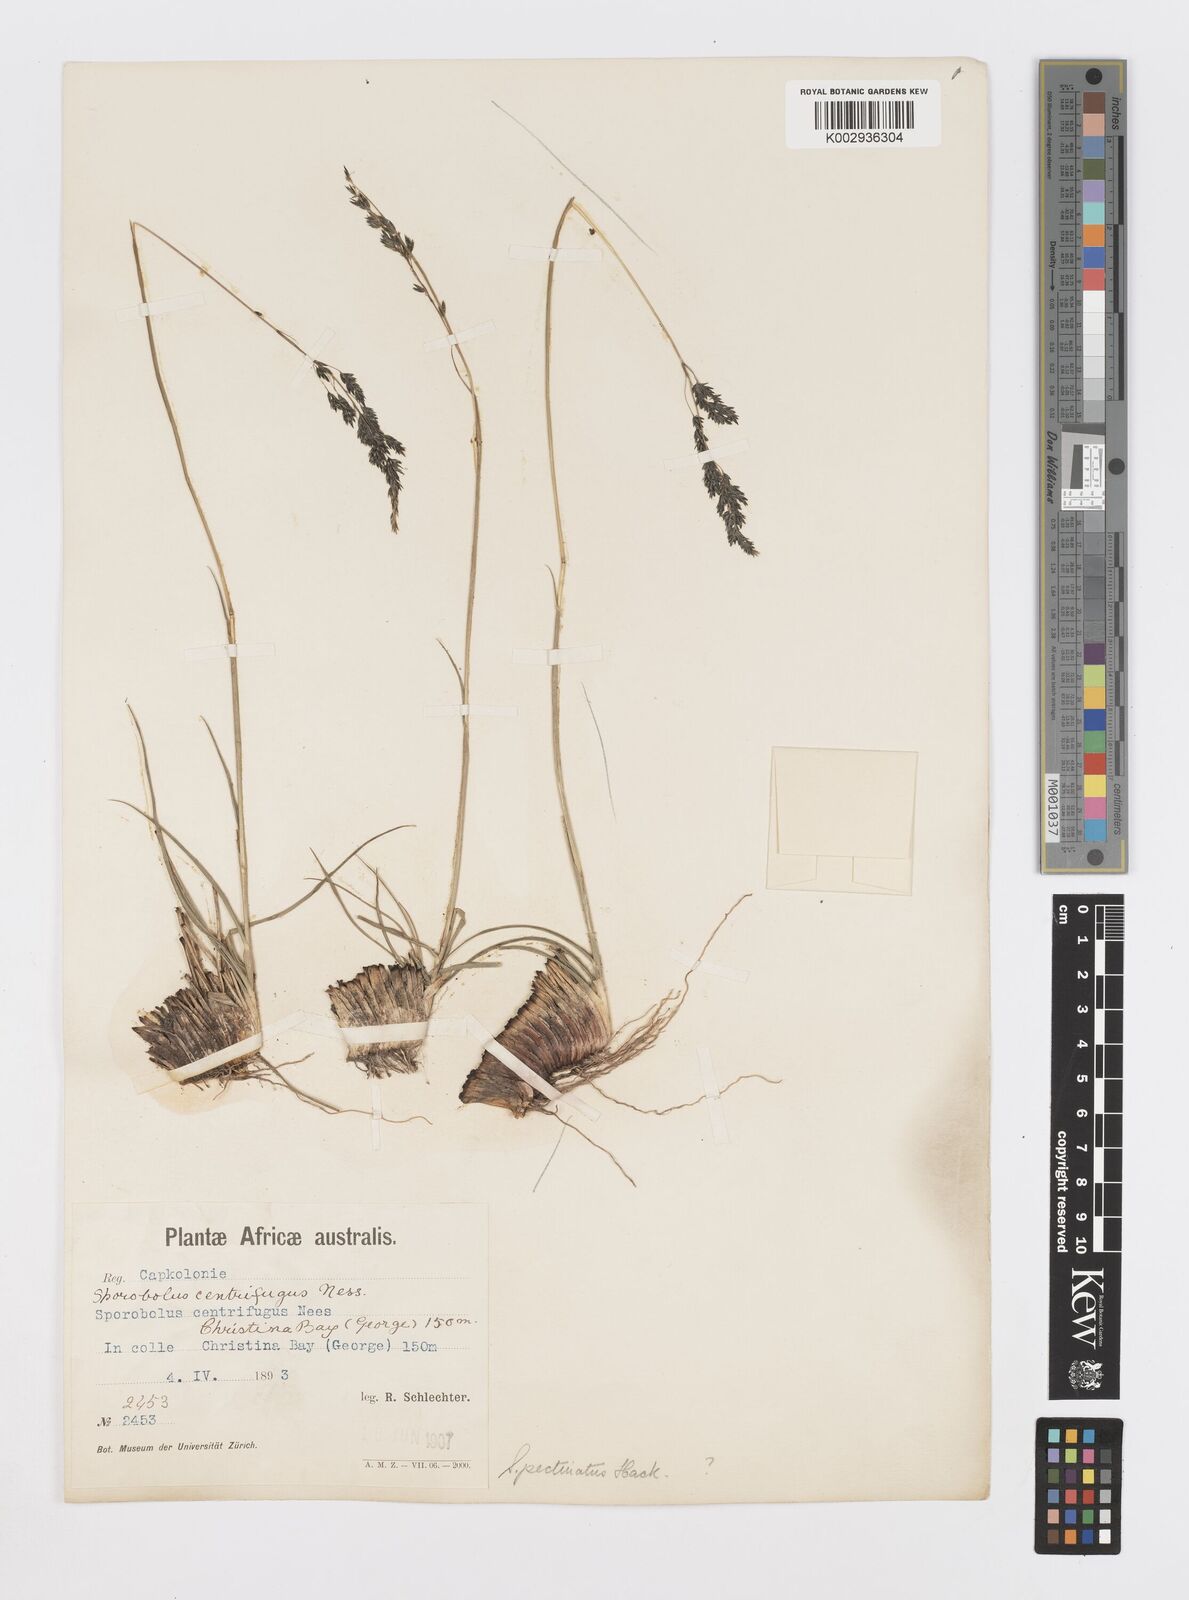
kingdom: Plantae
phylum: Tracheophyta
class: Liliopsida
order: Poales
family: Poaceae
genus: Sporobolus
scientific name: Sporobolus pectinatus
